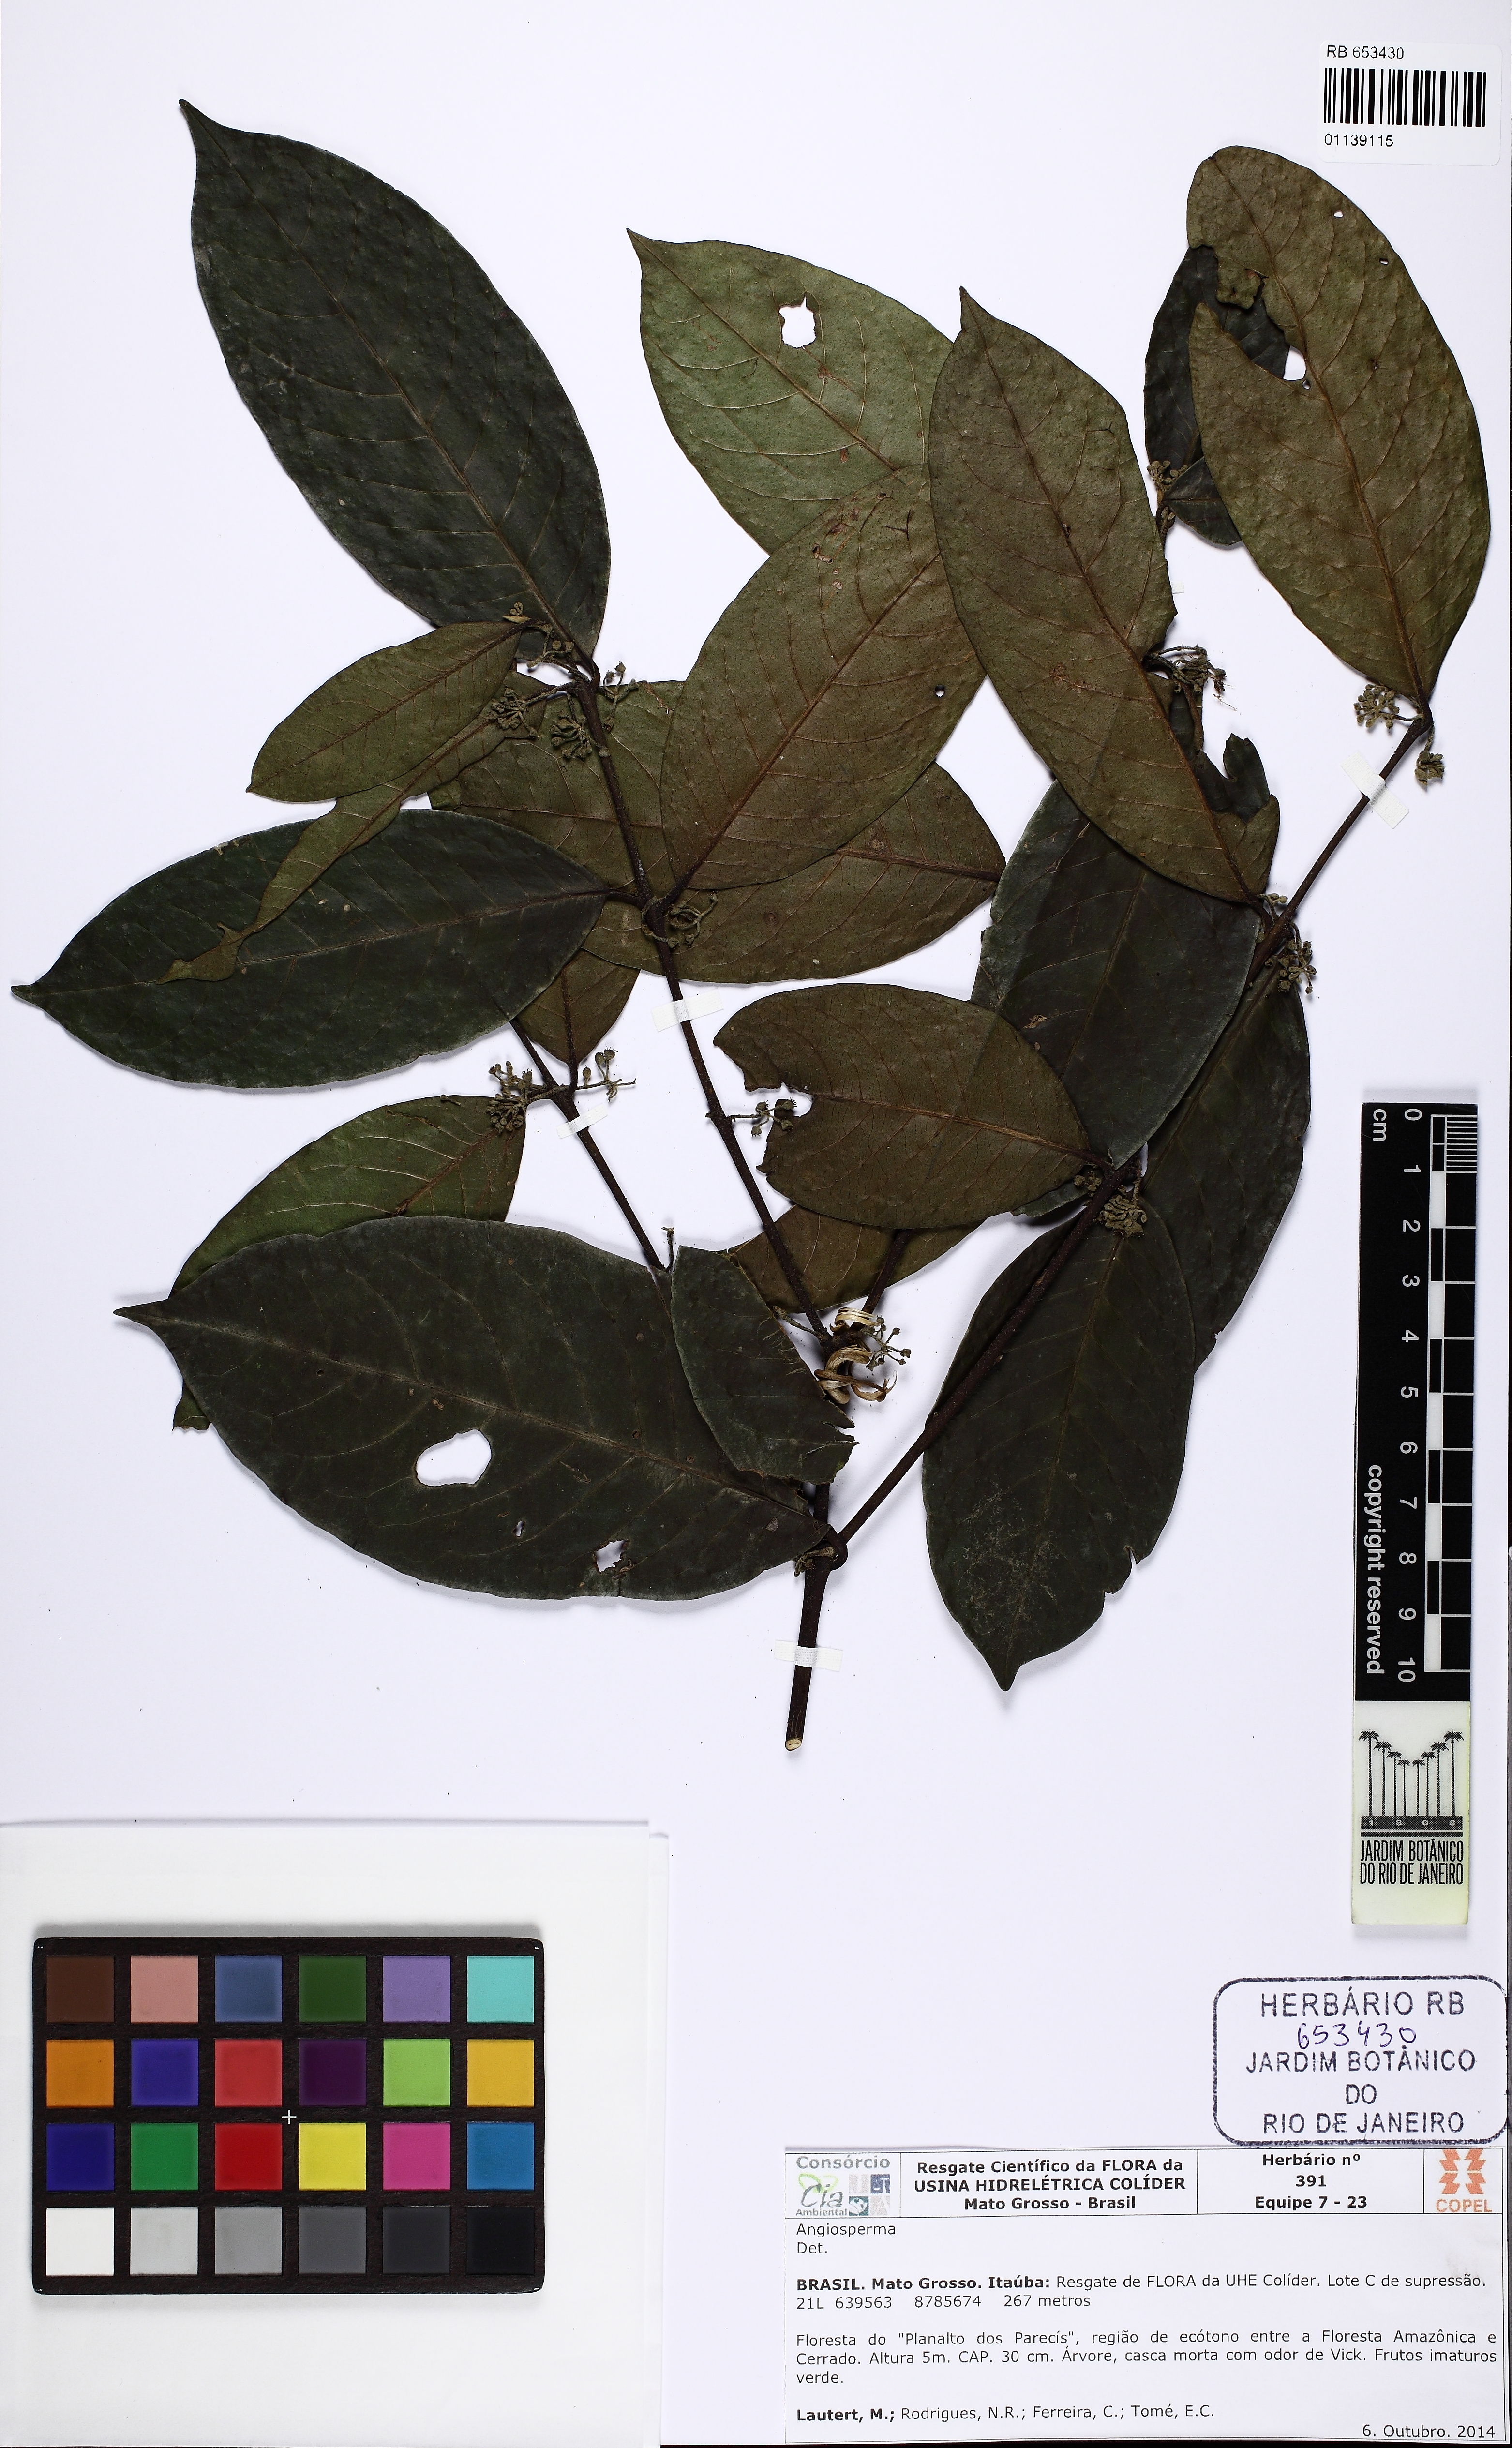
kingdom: Plantae
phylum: Tracheophyta
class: Magnoliopsida
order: Laurales
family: Monimiaceae
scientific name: Monimiaceae
